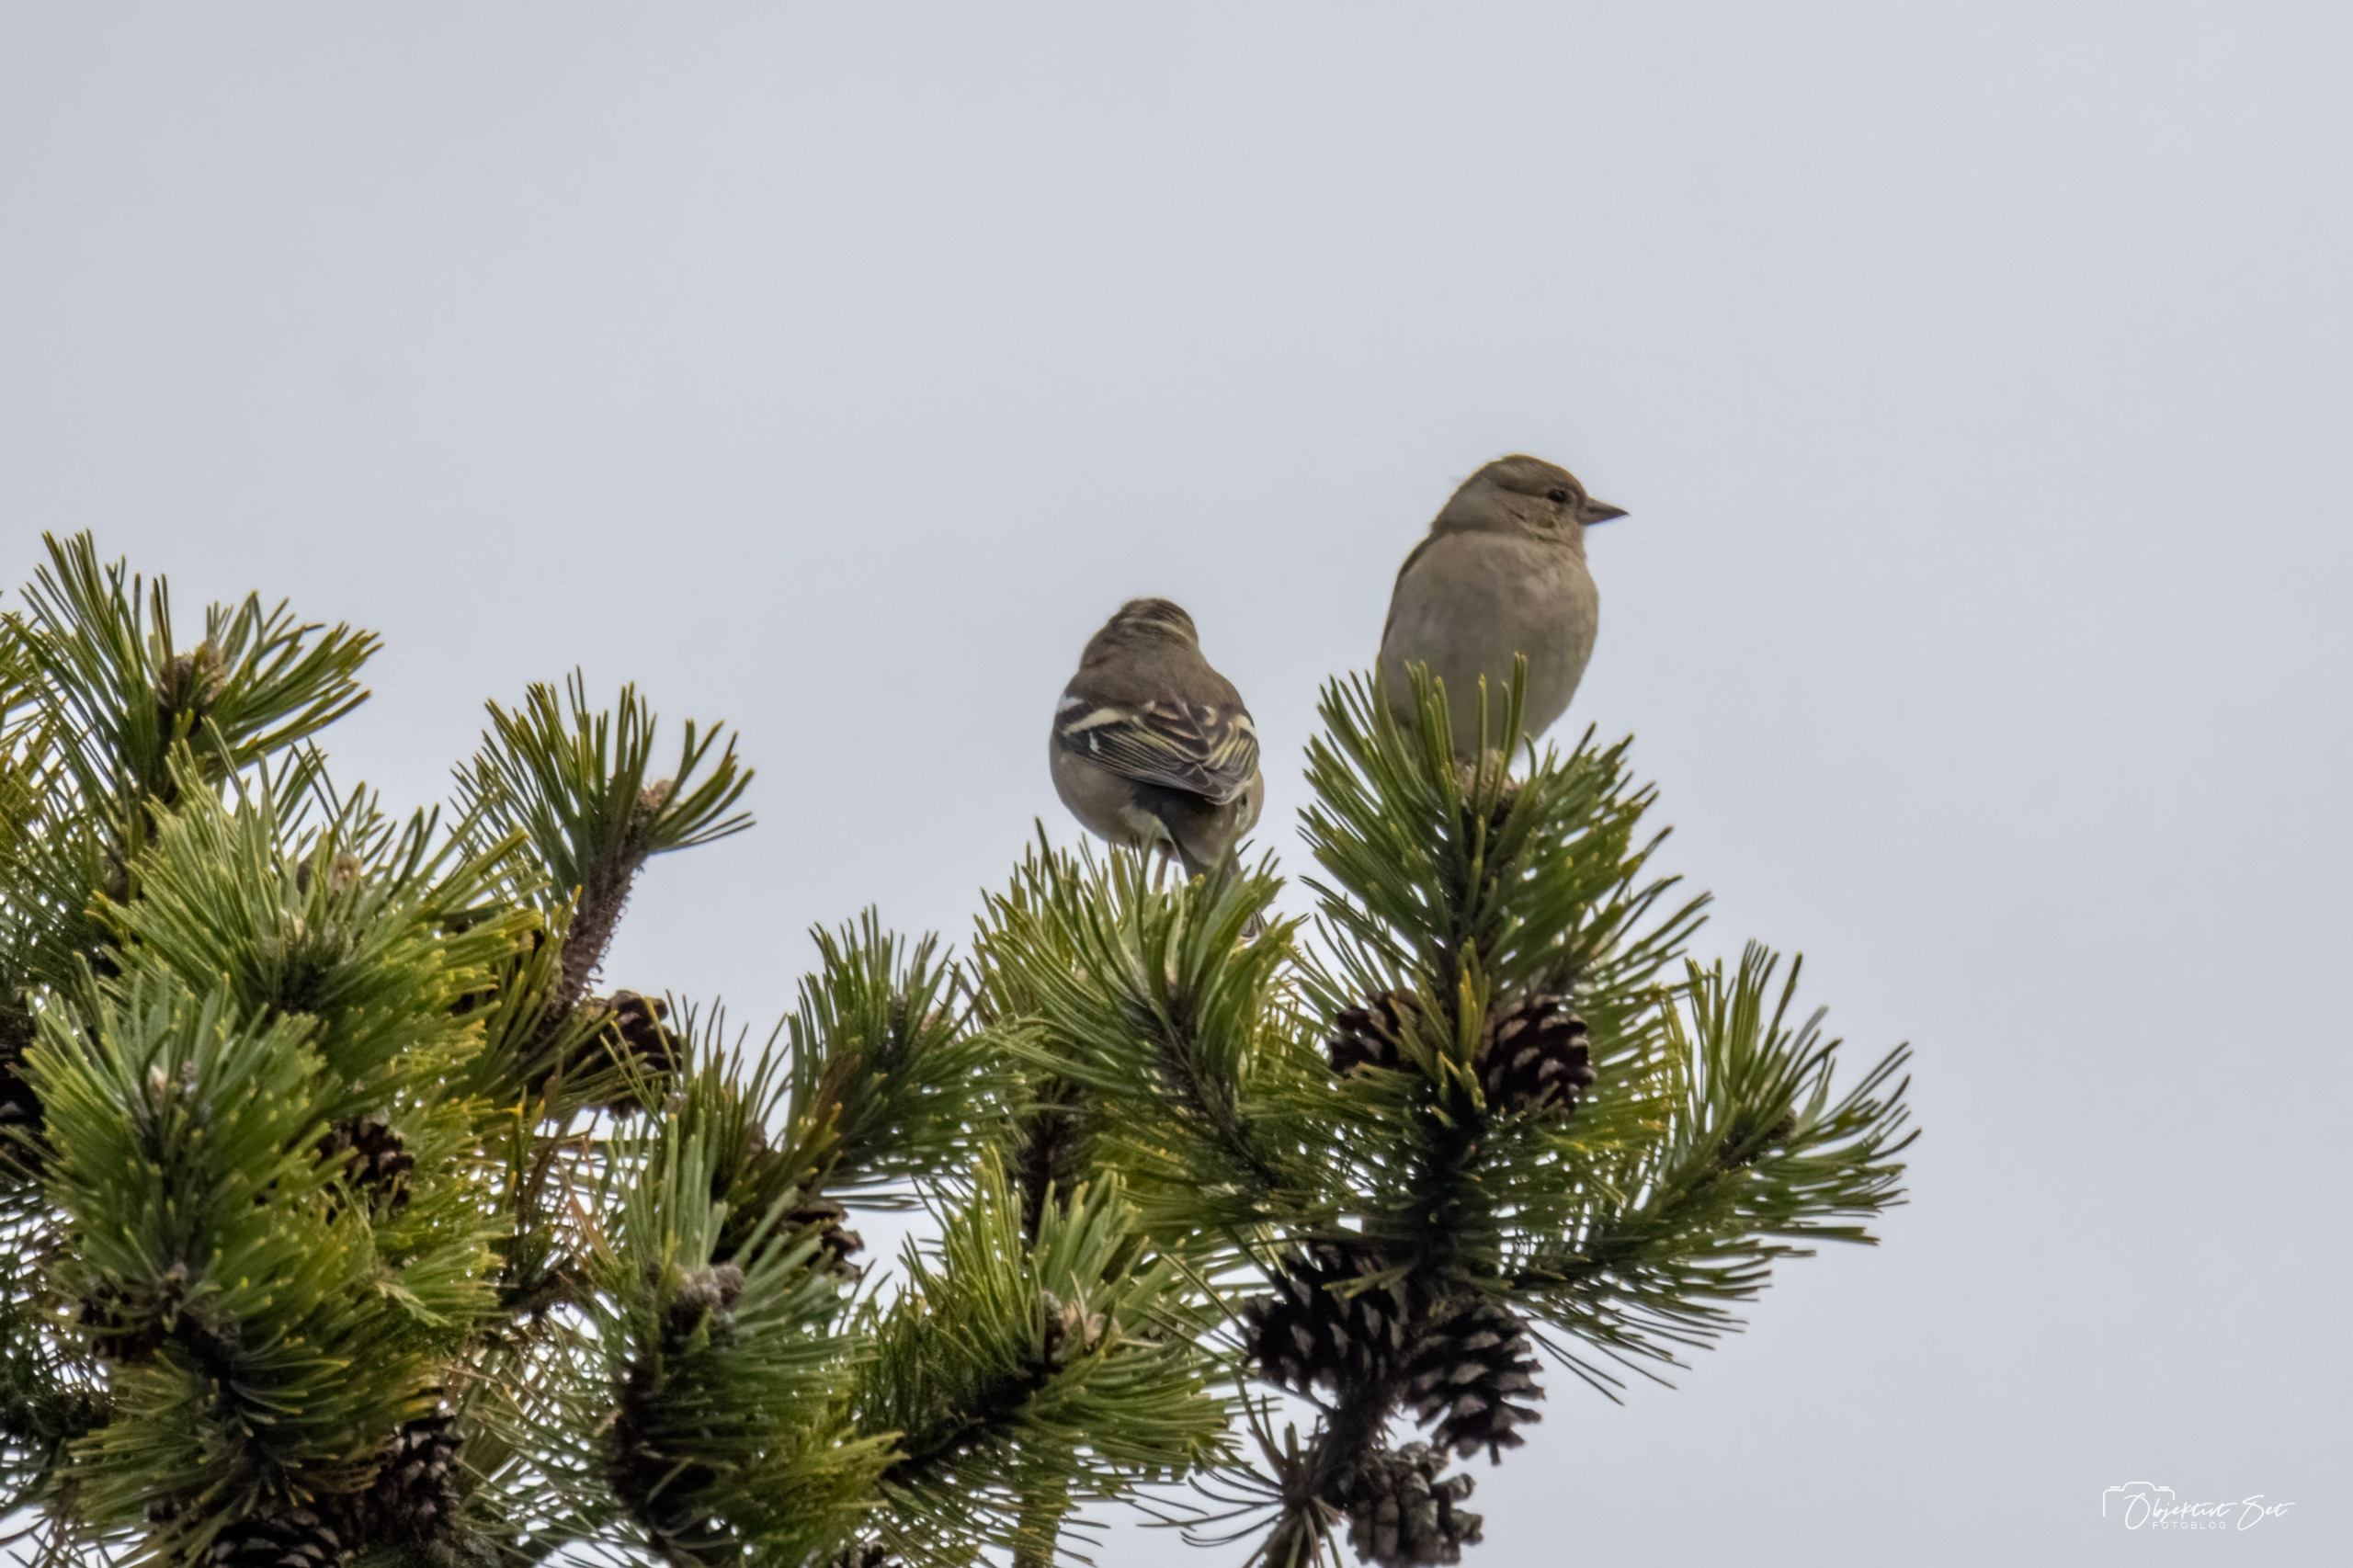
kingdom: Animalia
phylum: Chordata
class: Aves
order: Passeriformes
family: Fringillidae
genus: Fringilla
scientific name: Fringilla coelebs
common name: Bogfinke
